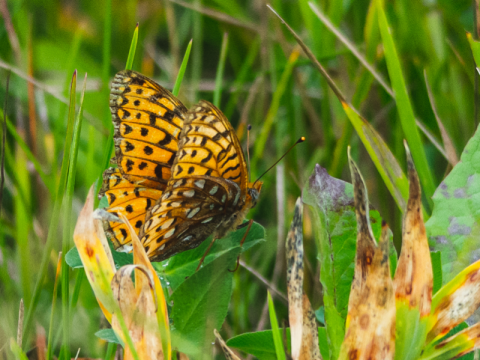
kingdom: Animalia
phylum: Arthropoda
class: Insecta
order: Lepidoptera
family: Nymphalidae
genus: Speyeria
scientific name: Speyeria atlantis
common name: Atlantis Fritillary
